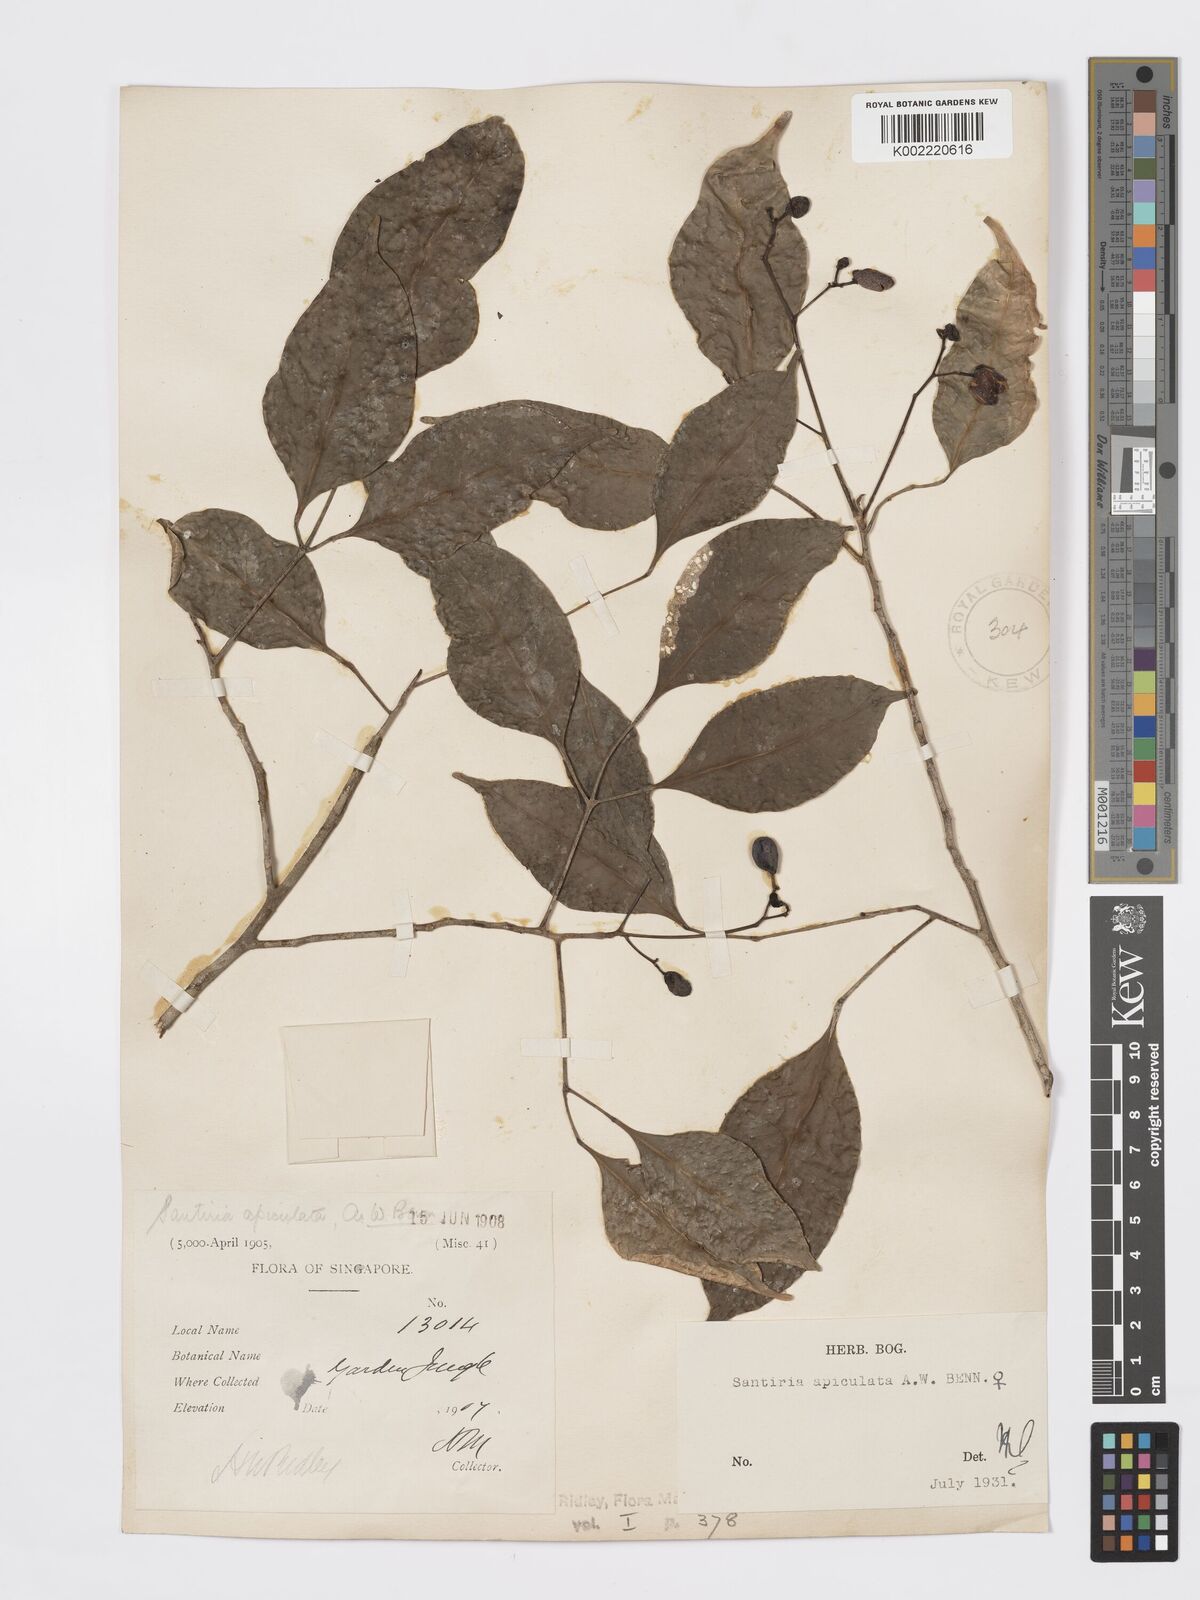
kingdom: Plantae
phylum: Tracheophyta
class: Magnoliopsida
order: Sapindales
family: Burseraceae
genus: Santiria
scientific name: Santiria apiculata
